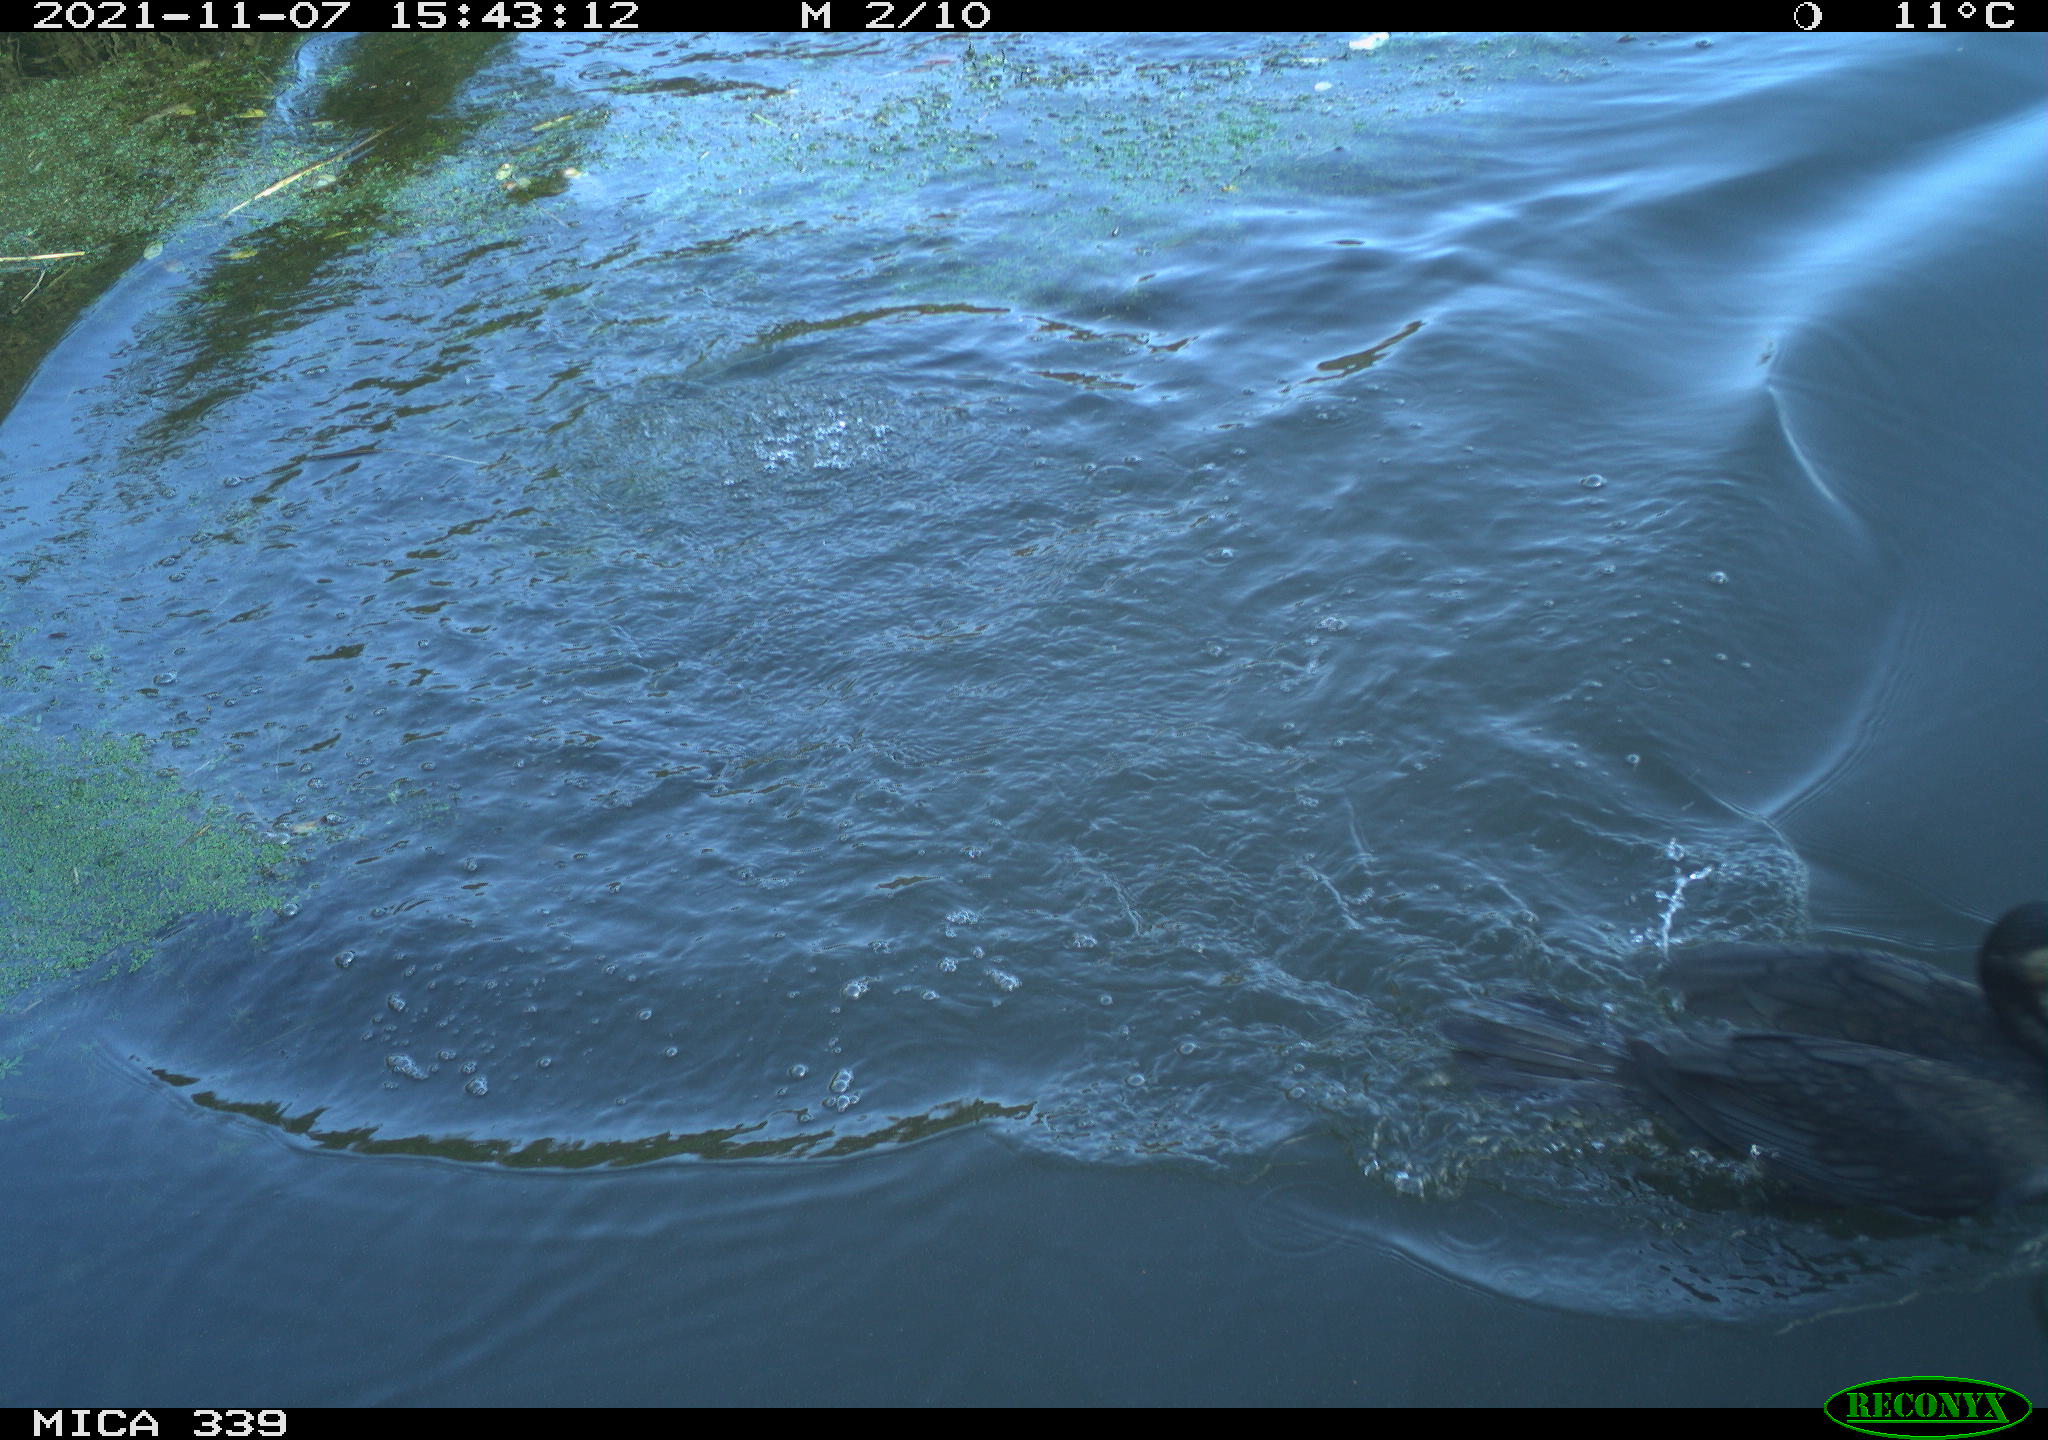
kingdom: Animalia
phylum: Chordata
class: Aves
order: Suliformes
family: Phalacrocoracidae
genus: Phalacrocorax
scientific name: Phalacrocorax carbo
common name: Great cormorant
